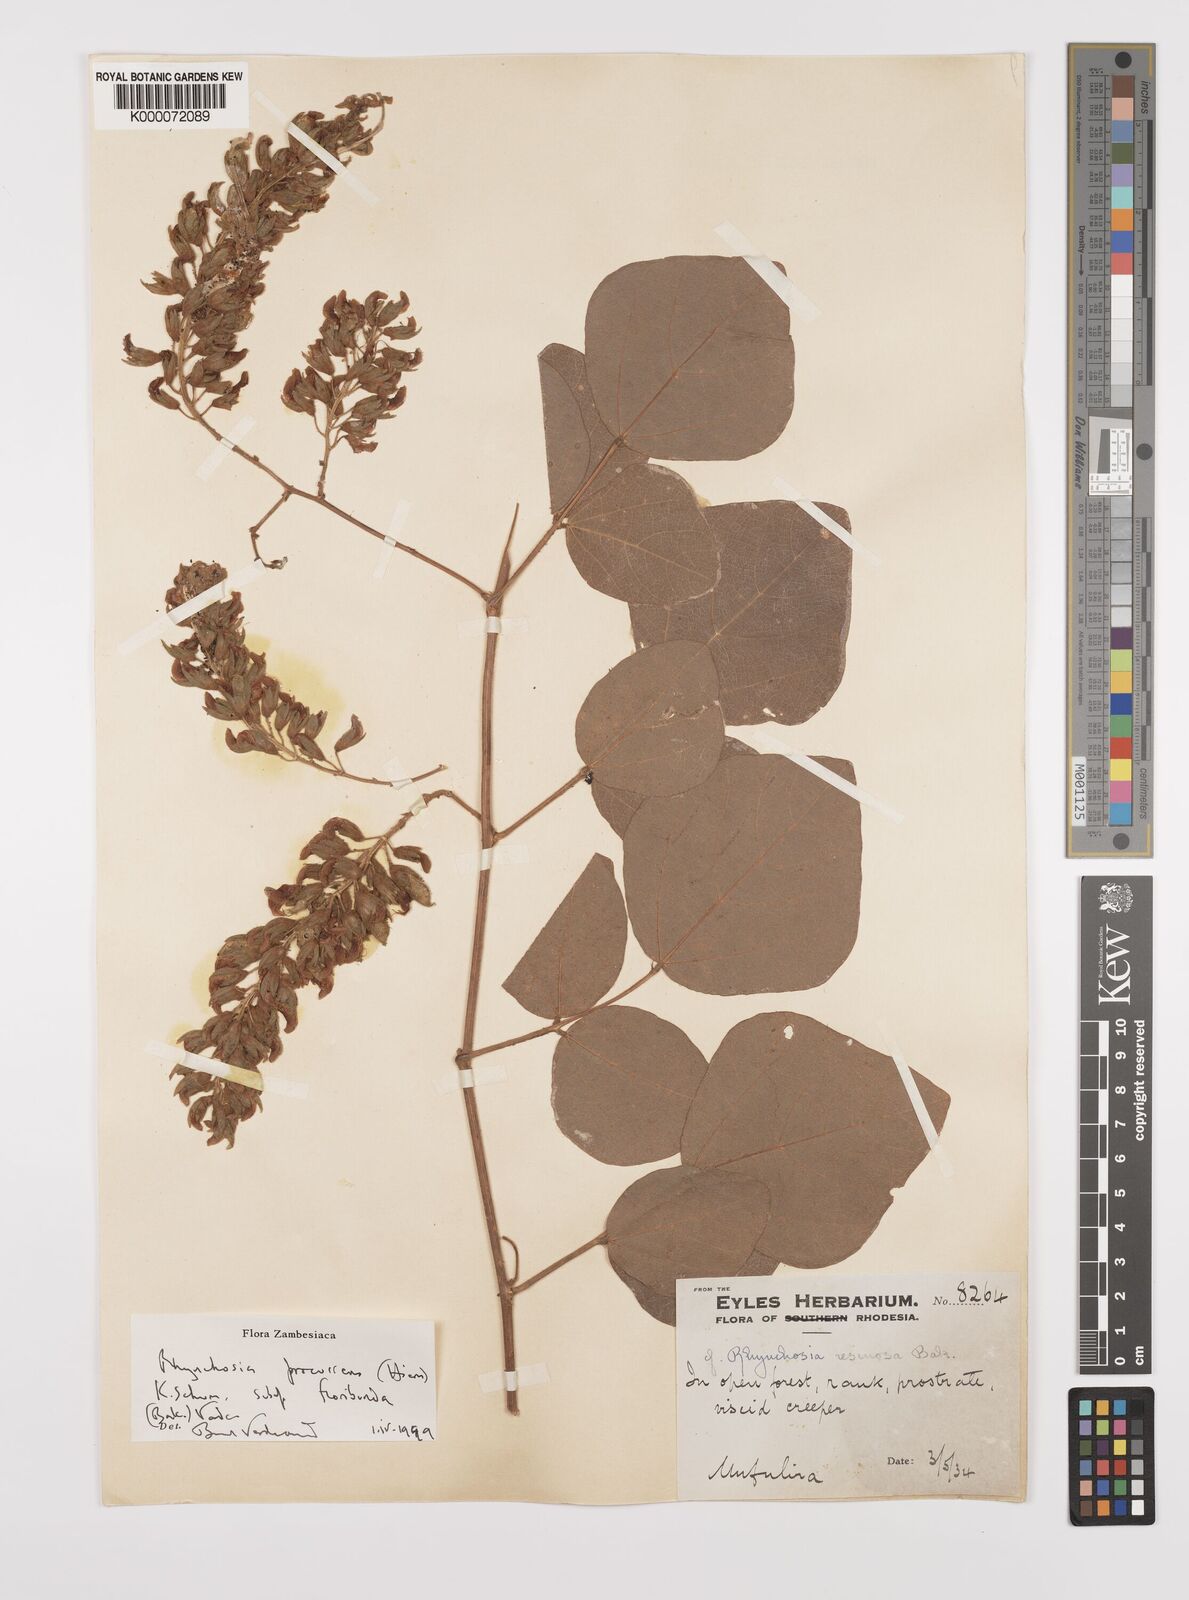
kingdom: Plantae
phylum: Tracheophyta
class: Magnoliopsida
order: Fabales
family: Fabaceae
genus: Rhynchosia
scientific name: Rhynchosia procurrens
